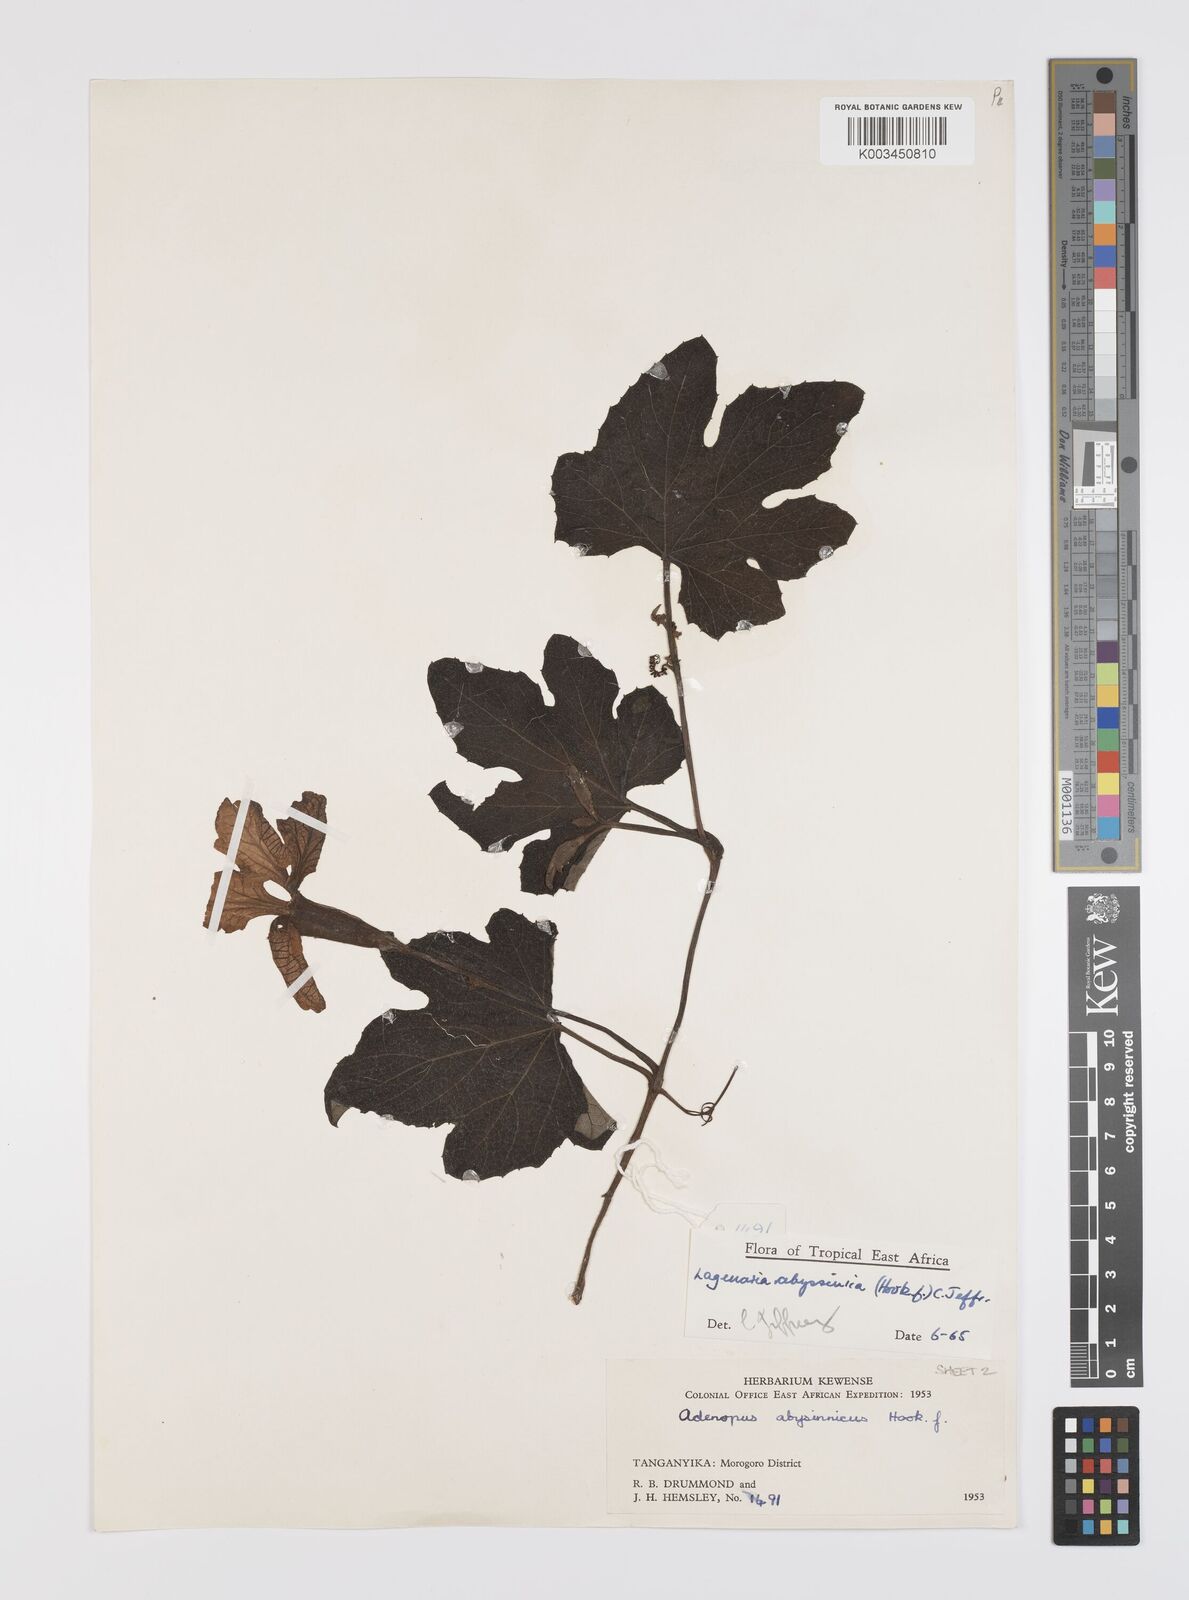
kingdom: Plantae
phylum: Tracheophyta
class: Magnoliopsida
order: Cucurbitales
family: Cucurbitaceae
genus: Lagenaria
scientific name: Lagenaria abyssinica
